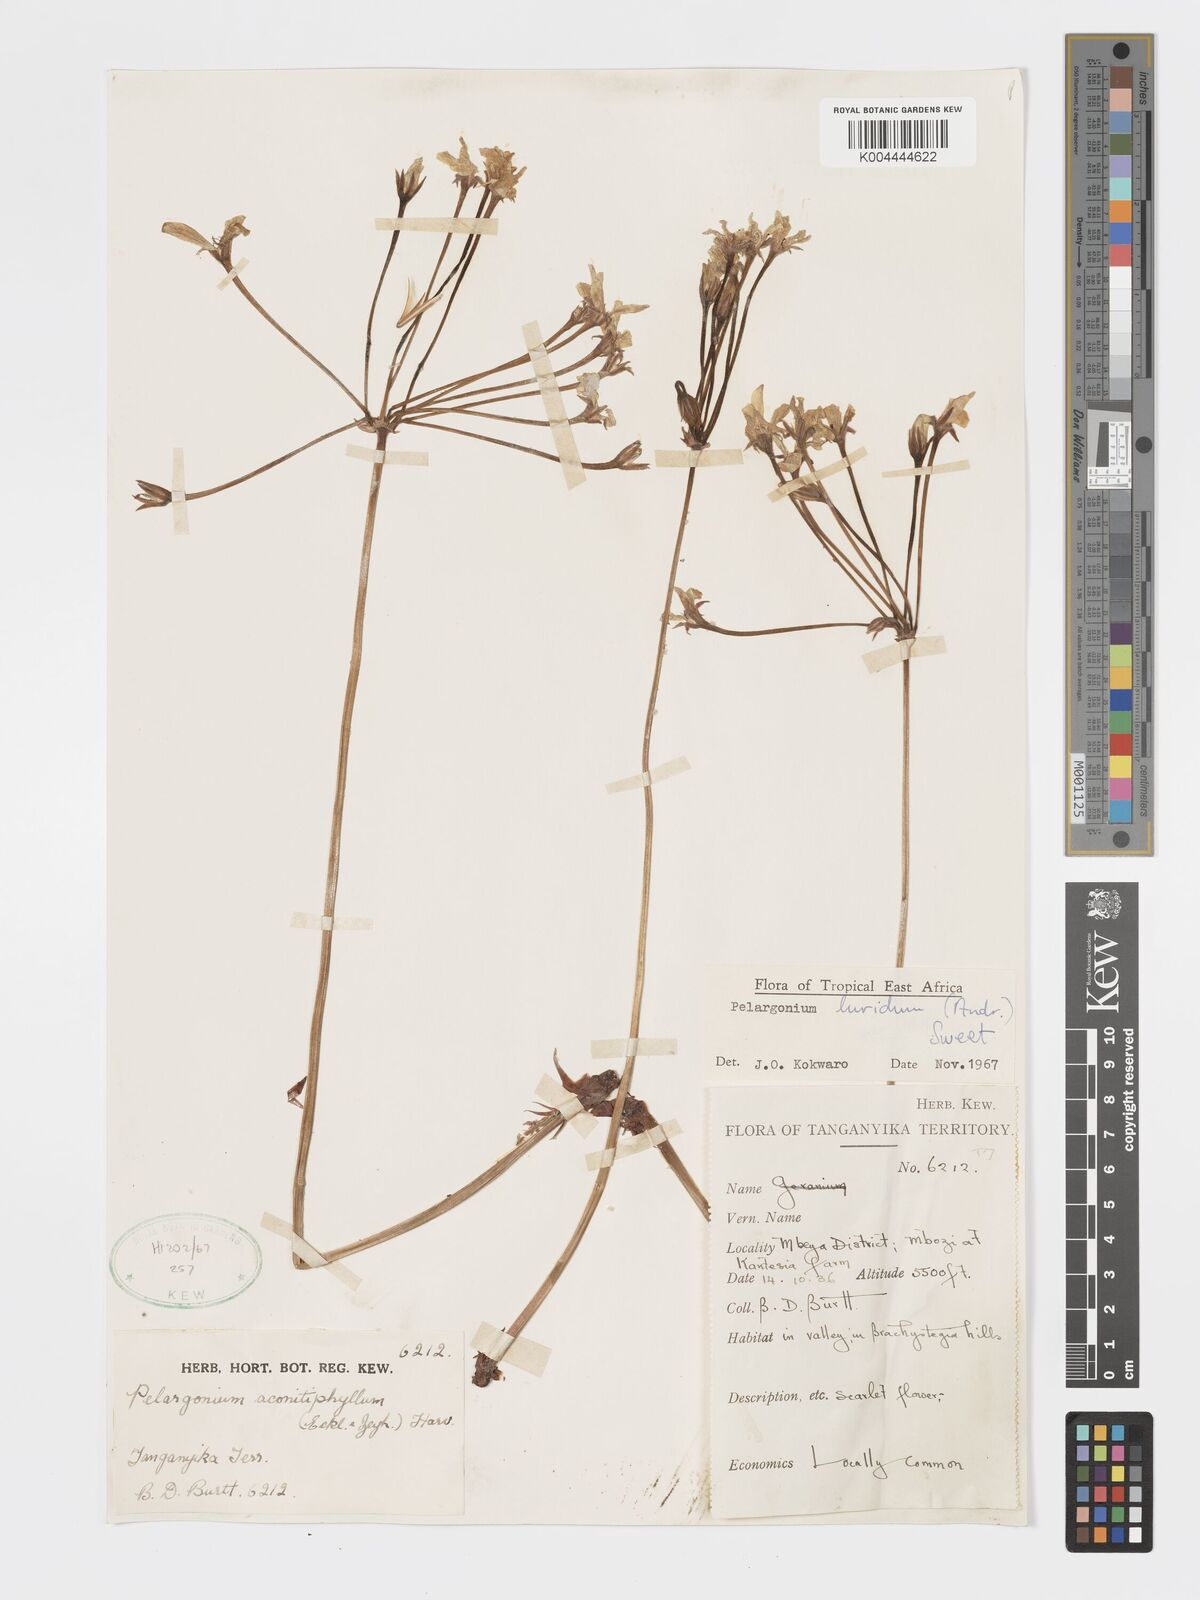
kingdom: Plantae
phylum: Tracheophyta
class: Magnoliopsida
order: Geraniales
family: Geraniaceae
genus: Pelargonium
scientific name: Pelargonium luridum
